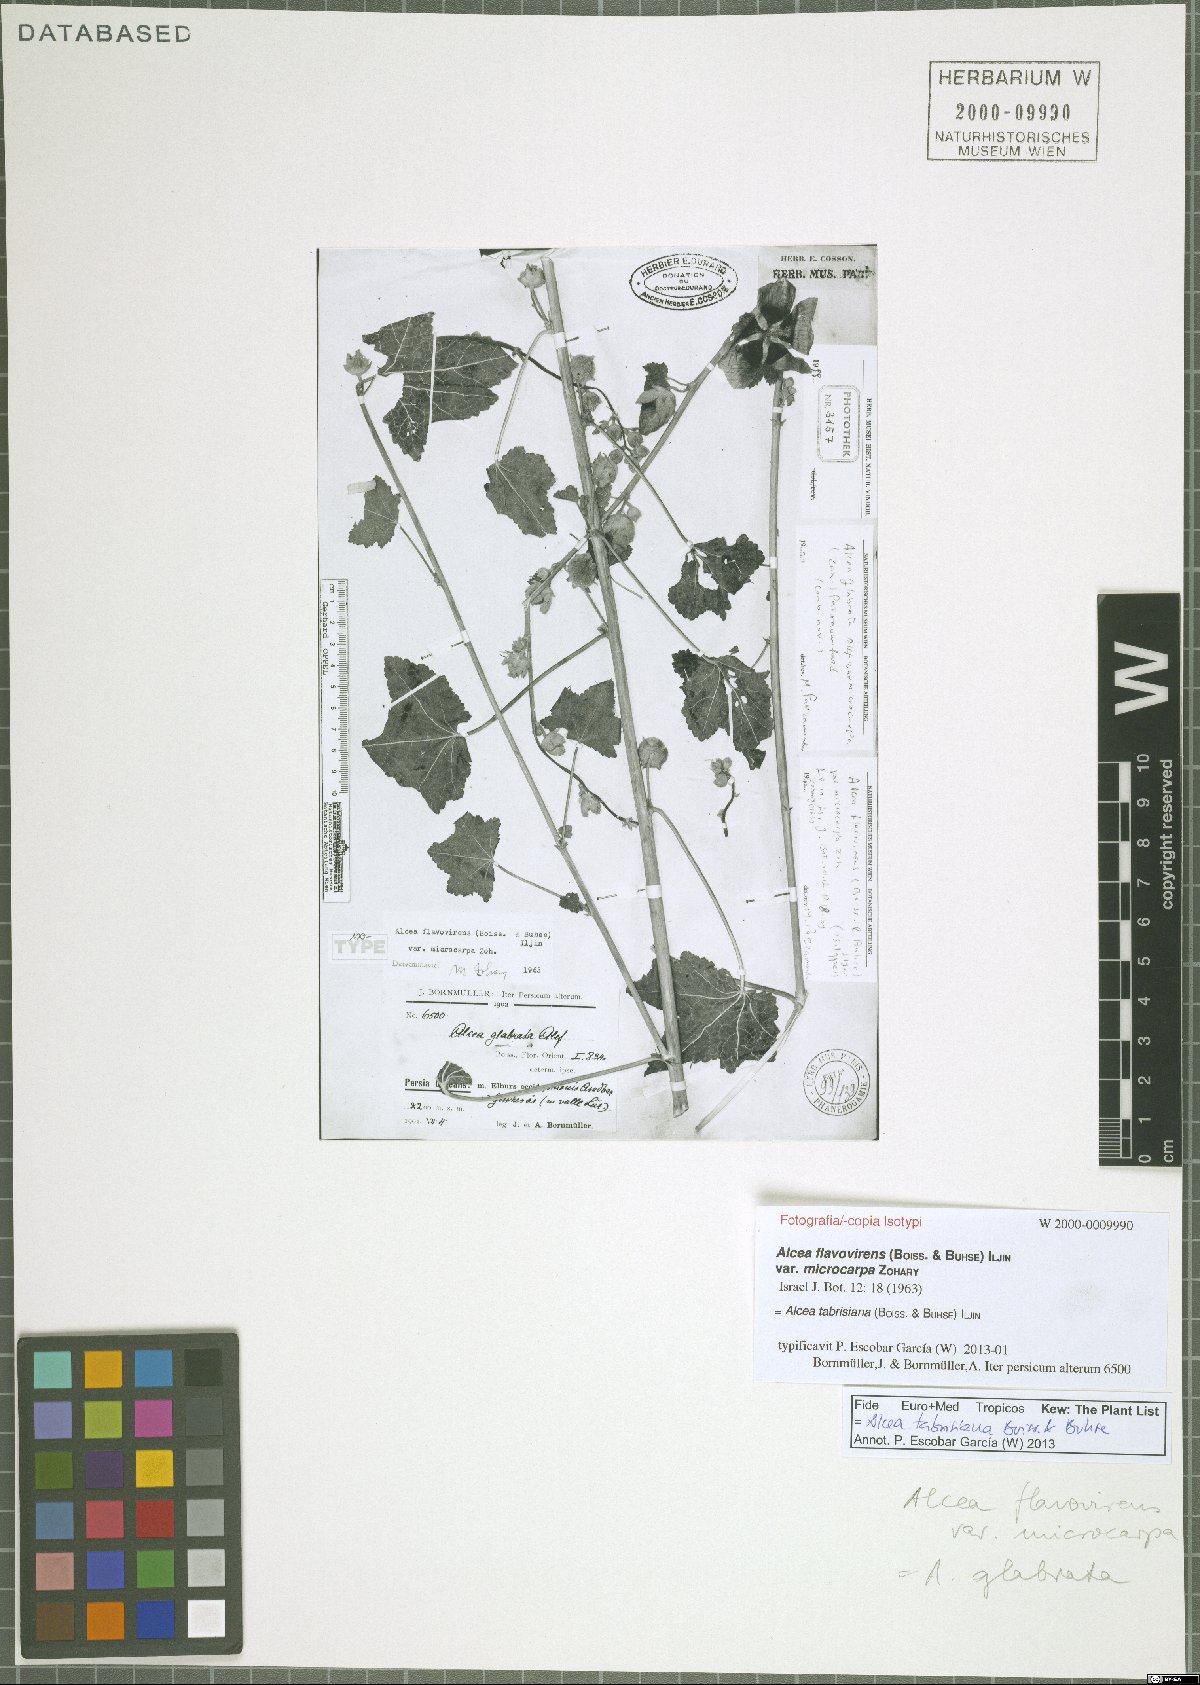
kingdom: Plantae
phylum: Tracheophyta
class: Magnoliopsida
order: Malvales
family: Malvaceae
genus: Alcea
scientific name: Alcea tabrisiana
